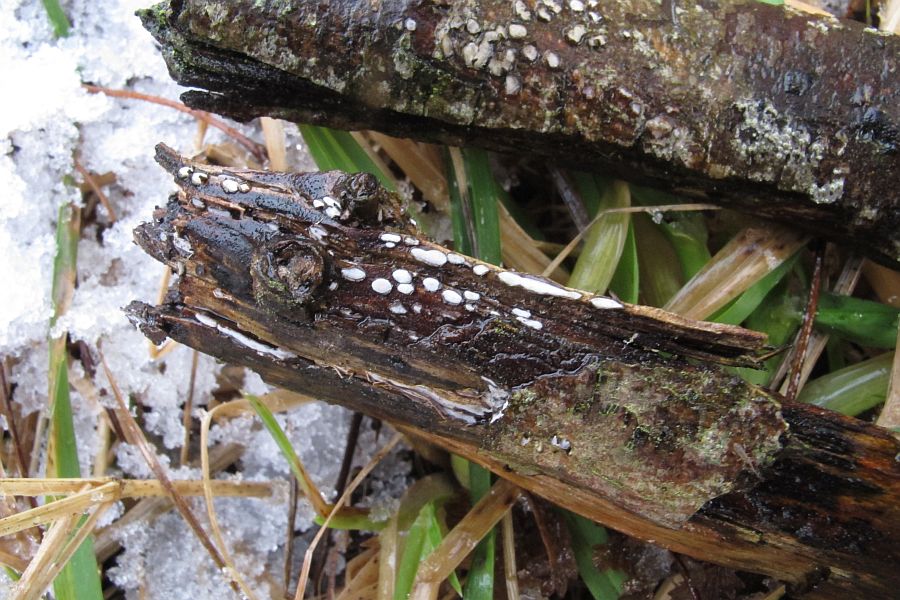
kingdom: Fungi
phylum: Ascomycota
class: Leotiomycetes
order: Chaetomellales
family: Marthamycetaceae
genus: Propolis
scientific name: Propolis farinosa
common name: almindelig vedsprængerskive
